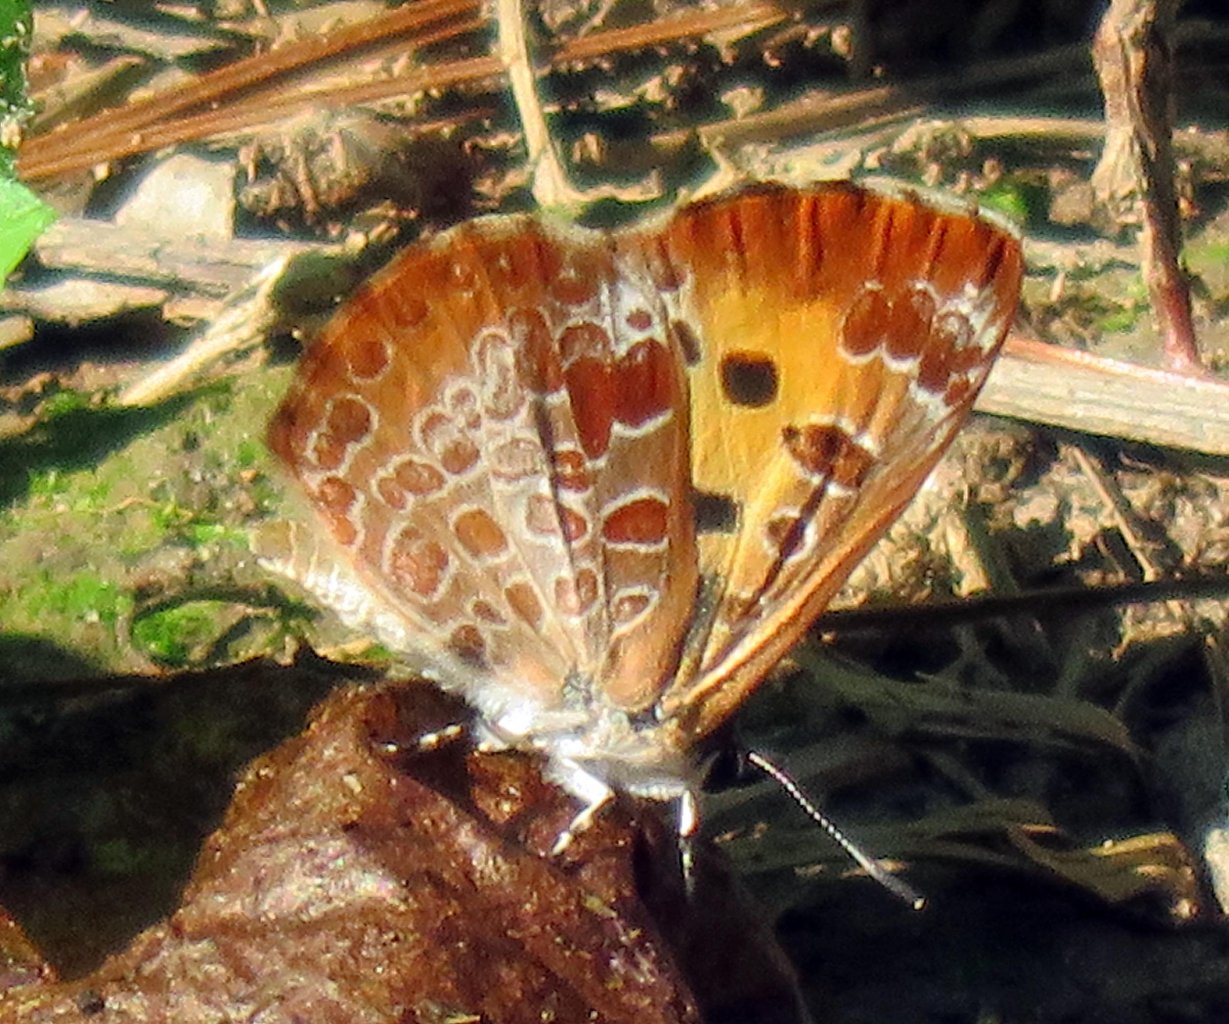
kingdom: Animalia
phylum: Arthropoda
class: Insecta
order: Lepidoptera
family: Lycaenidae
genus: Feniseca
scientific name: Feniseca tarquinius
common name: Harvester
